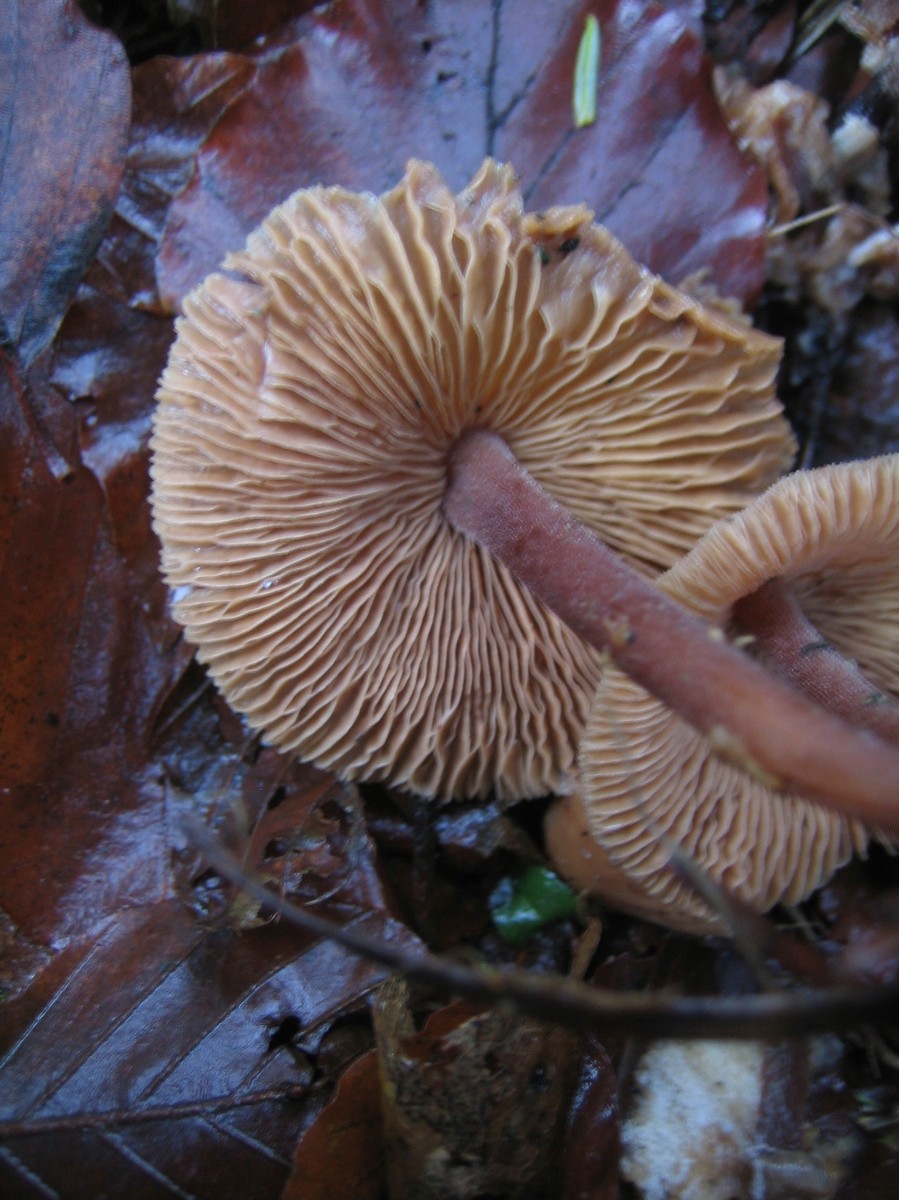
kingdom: Fungi
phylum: Basidiomycota
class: Agaricomycetes
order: Agaricales
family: Omphalotaceae
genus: Gymnopus
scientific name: Gymnopus
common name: fladhat
